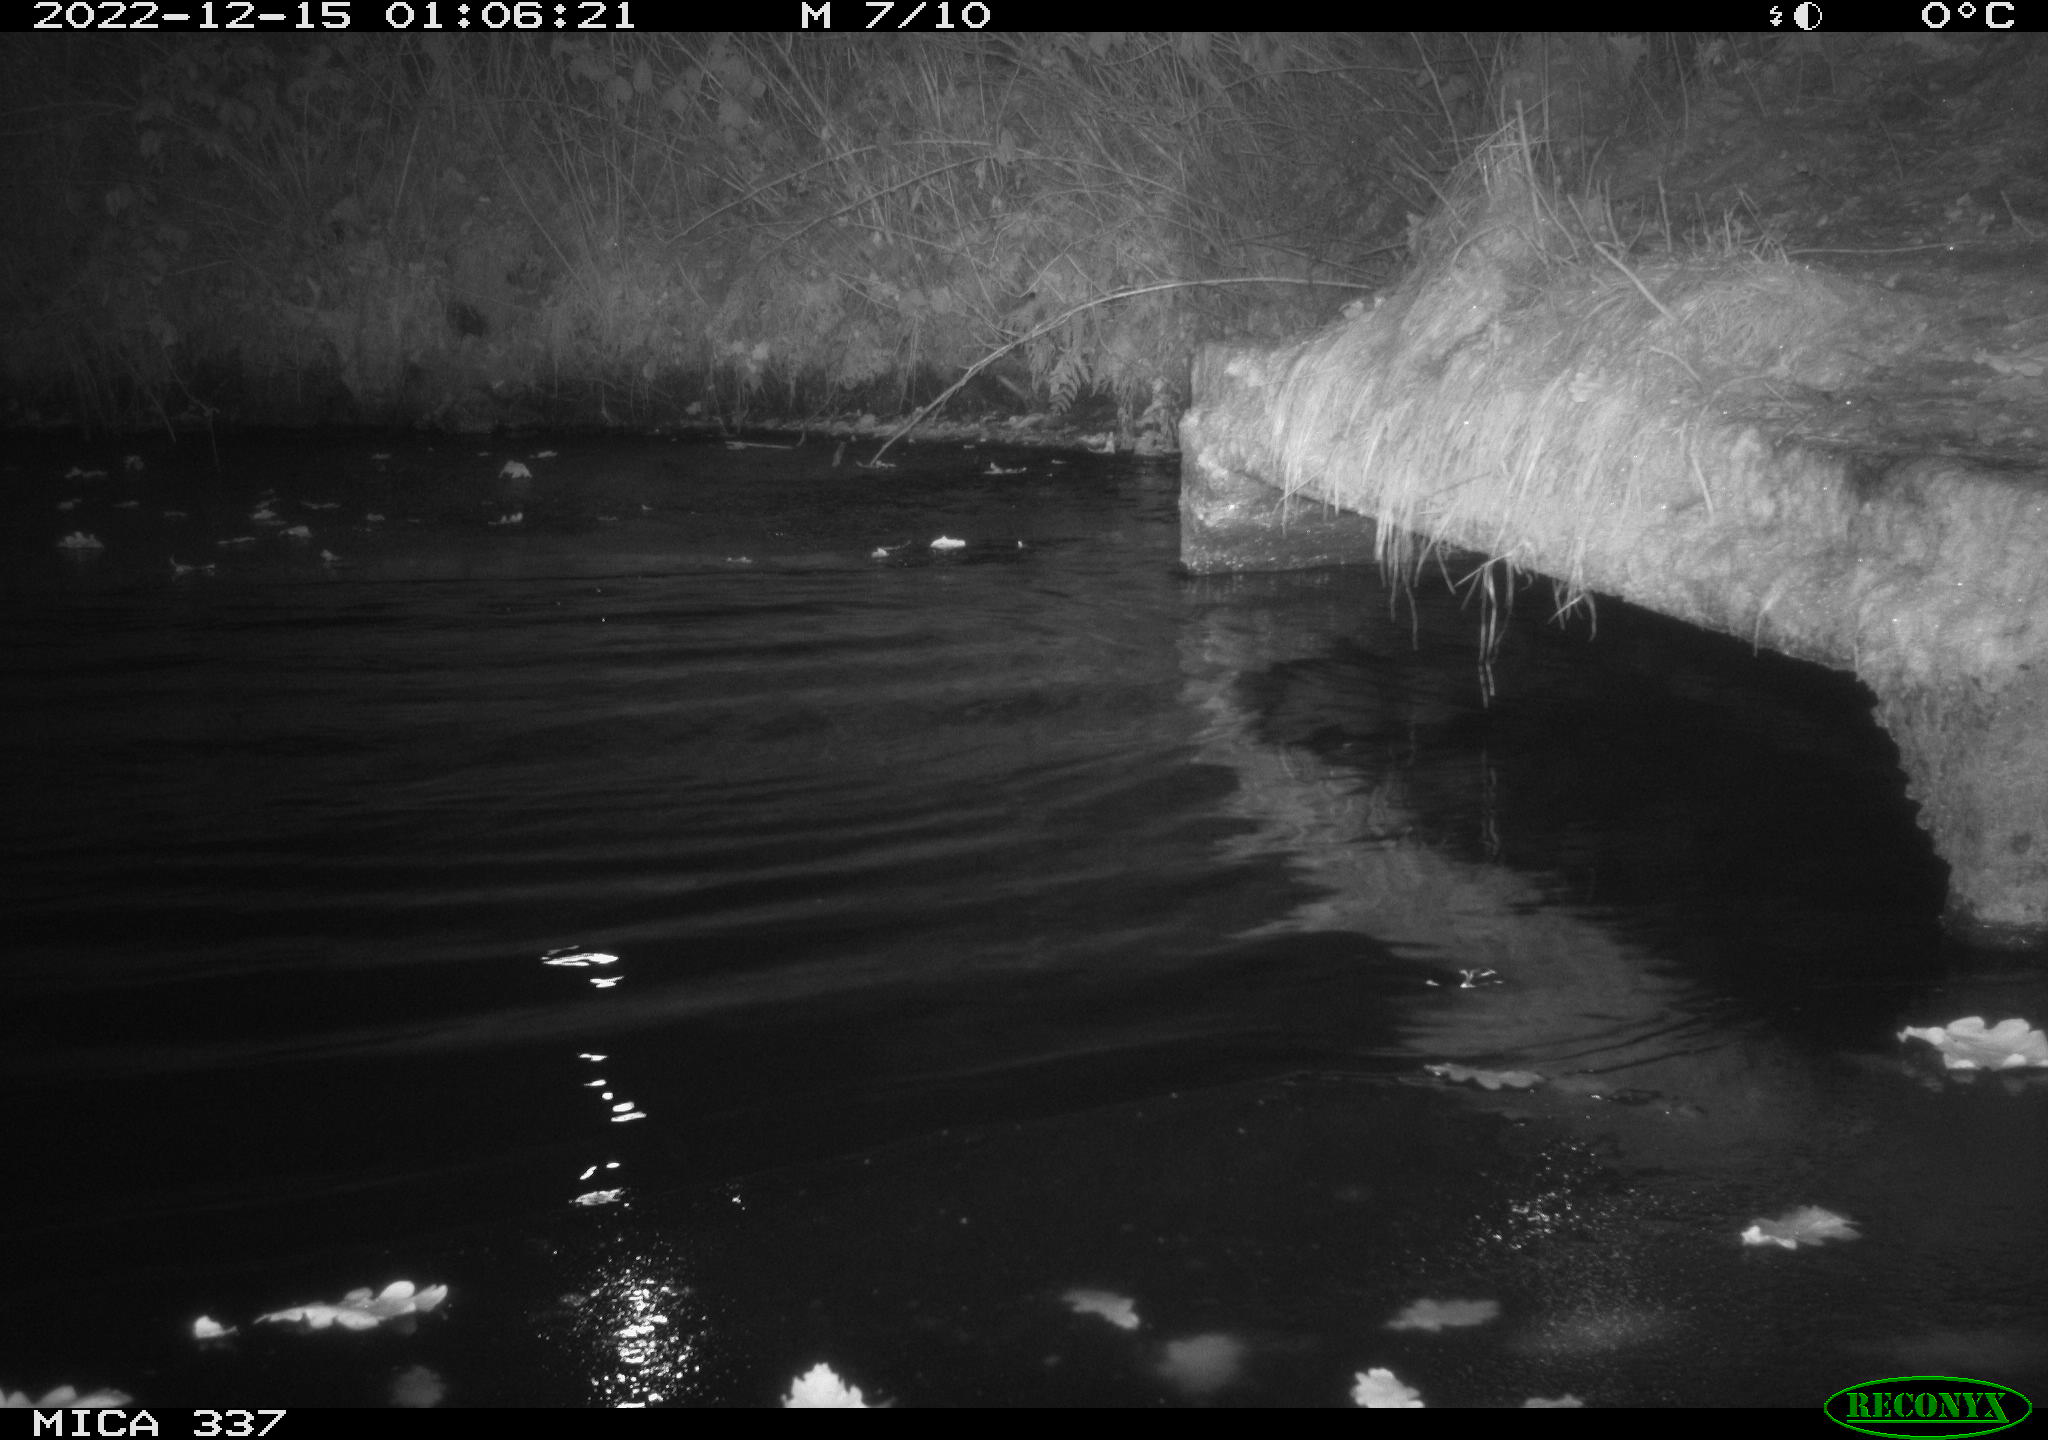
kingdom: Animalia
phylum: Chordata
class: Aves
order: Anseriformes
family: Anatidae
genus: Anas
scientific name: Anas
